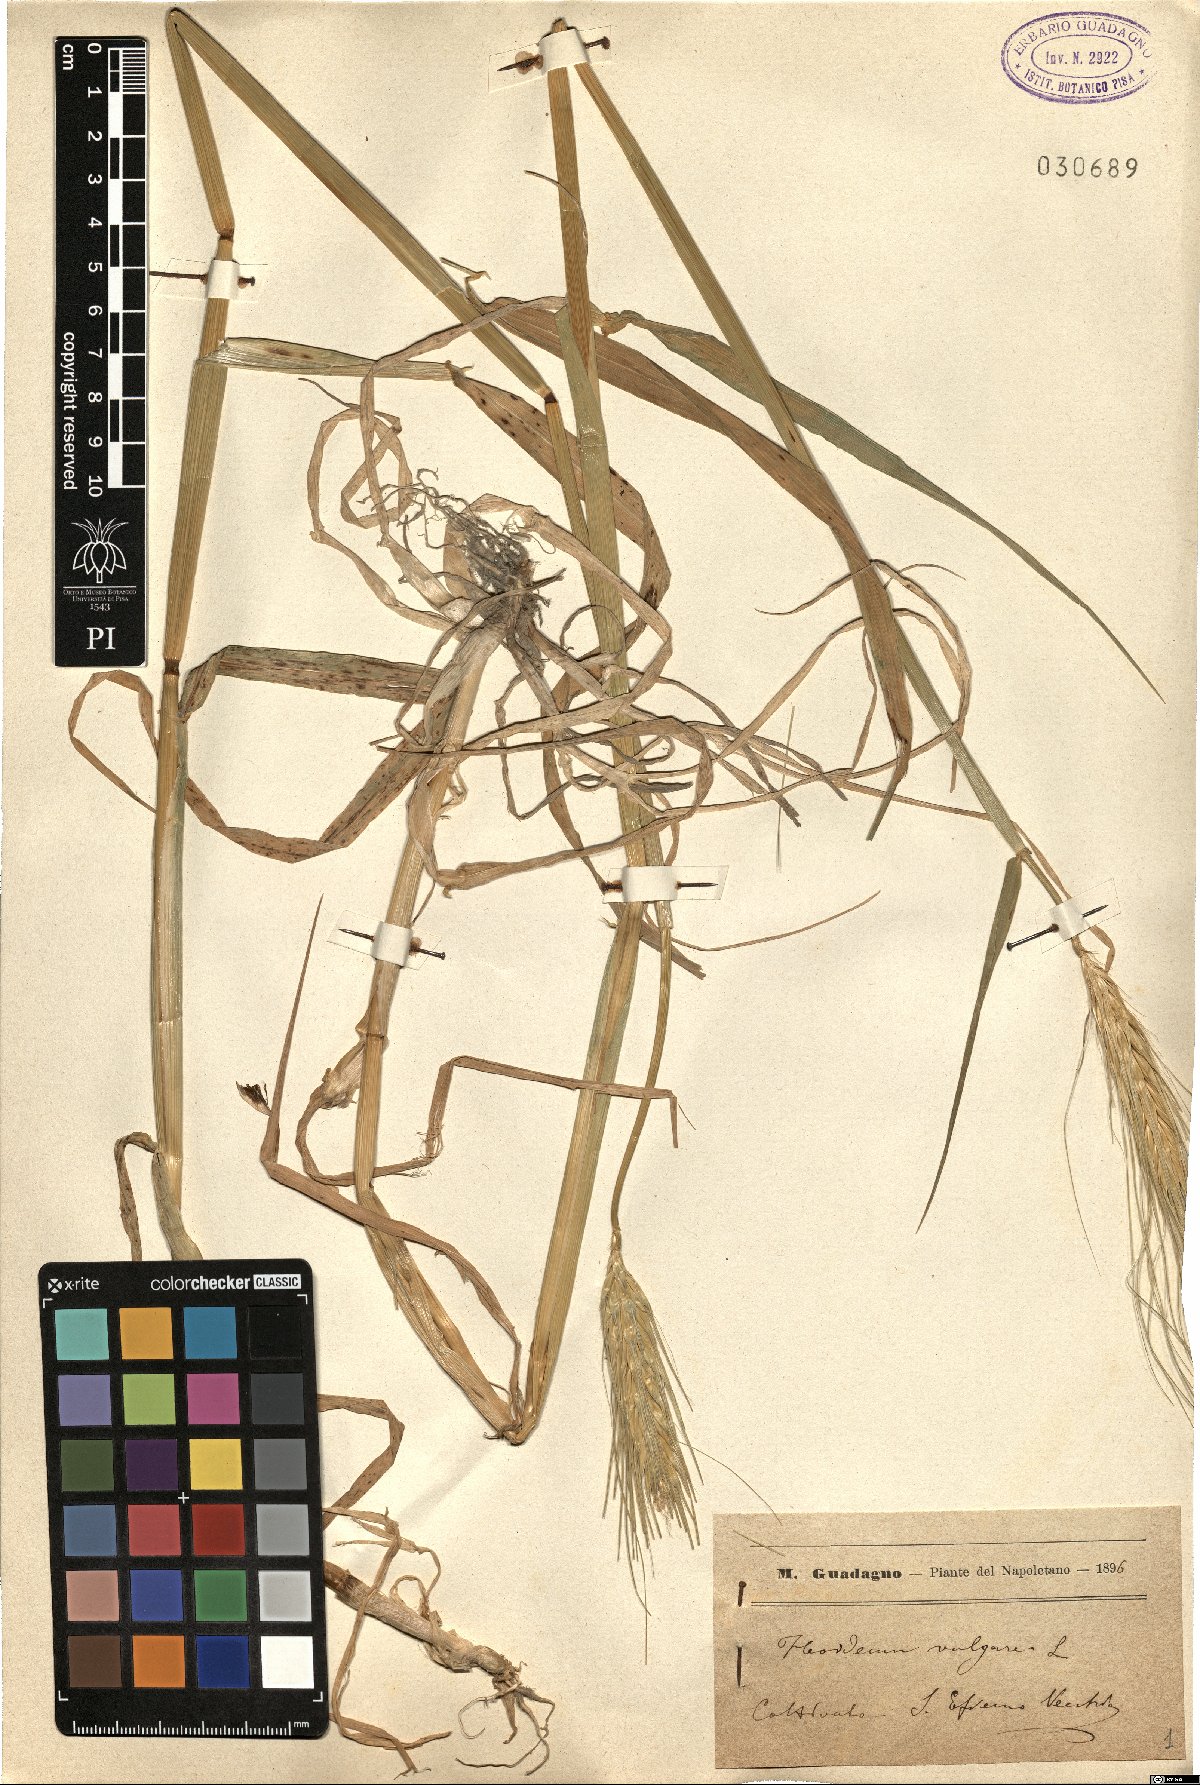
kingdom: Plantae
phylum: Tracheophyta
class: Liliopsida
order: Poales
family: Poaceae
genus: Hordeum
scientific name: Hordeum vulgare
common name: Common barley
